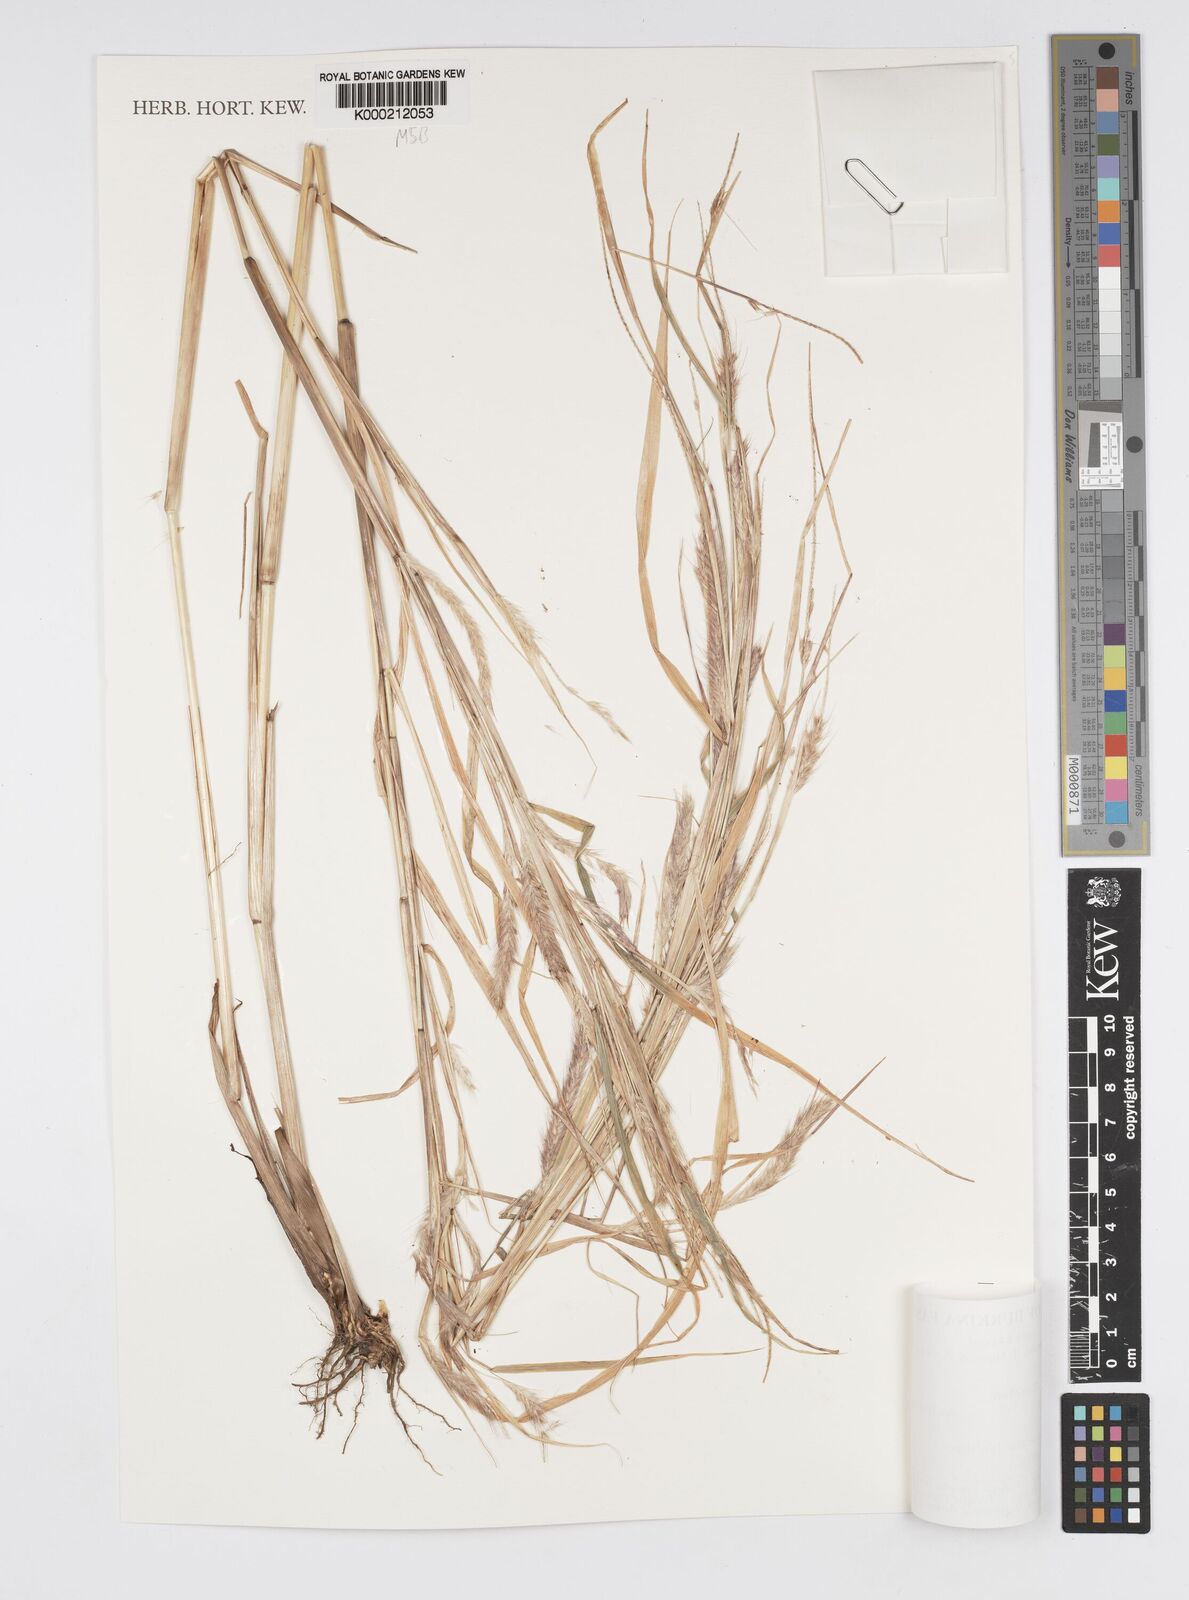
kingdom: Plantae
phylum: Tracheophyta
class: Liliopsida
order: Poales
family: Poaceae
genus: Setaria
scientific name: Setaria parviflora
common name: Knotroot bristle-grass
